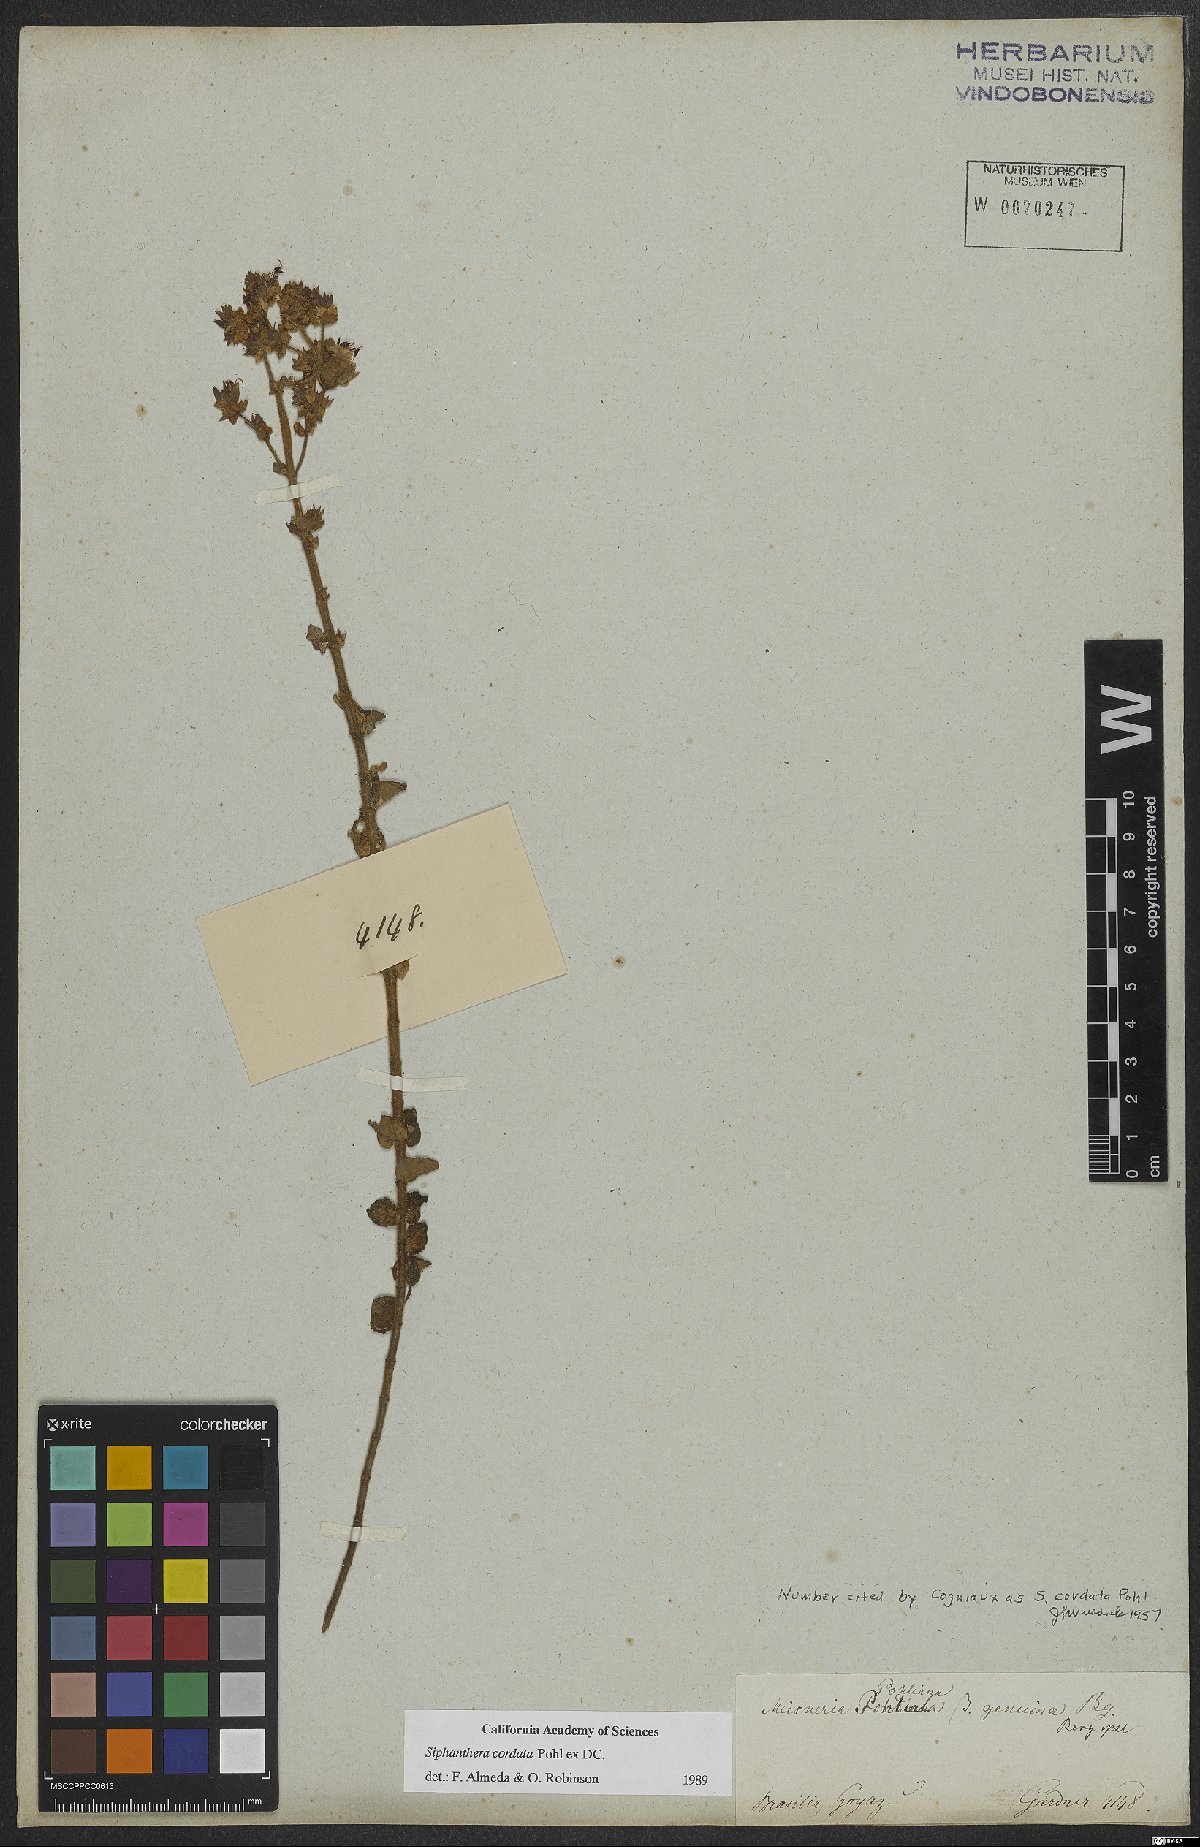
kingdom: Plantae
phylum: Tracheophyta
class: Magnoliopsida
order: Myrtales
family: Melastomataceae
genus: Siphanthera
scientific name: Siphanthera cordata
